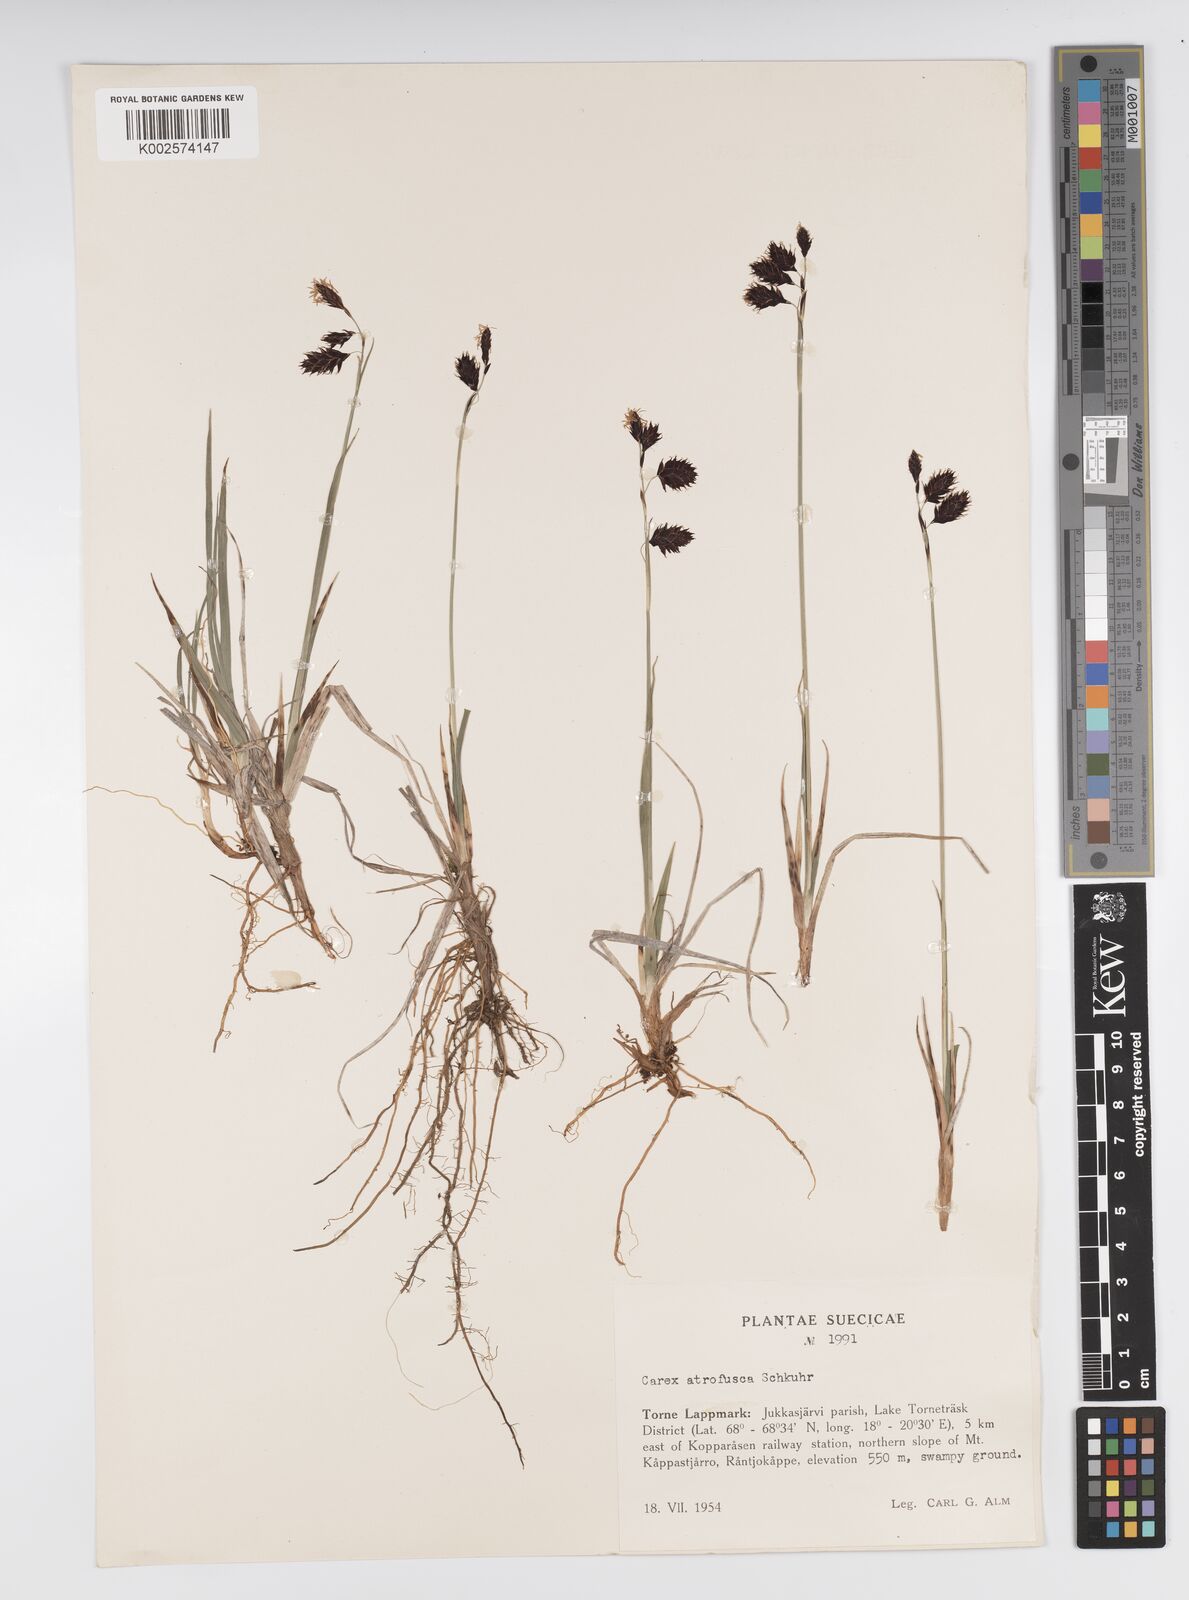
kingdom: Plantae
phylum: Tracheophyta
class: Liliopsida
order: Poales
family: Cyperaceae
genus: Carex
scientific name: Carex atrofusca
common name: Scorched alpine-sedge
